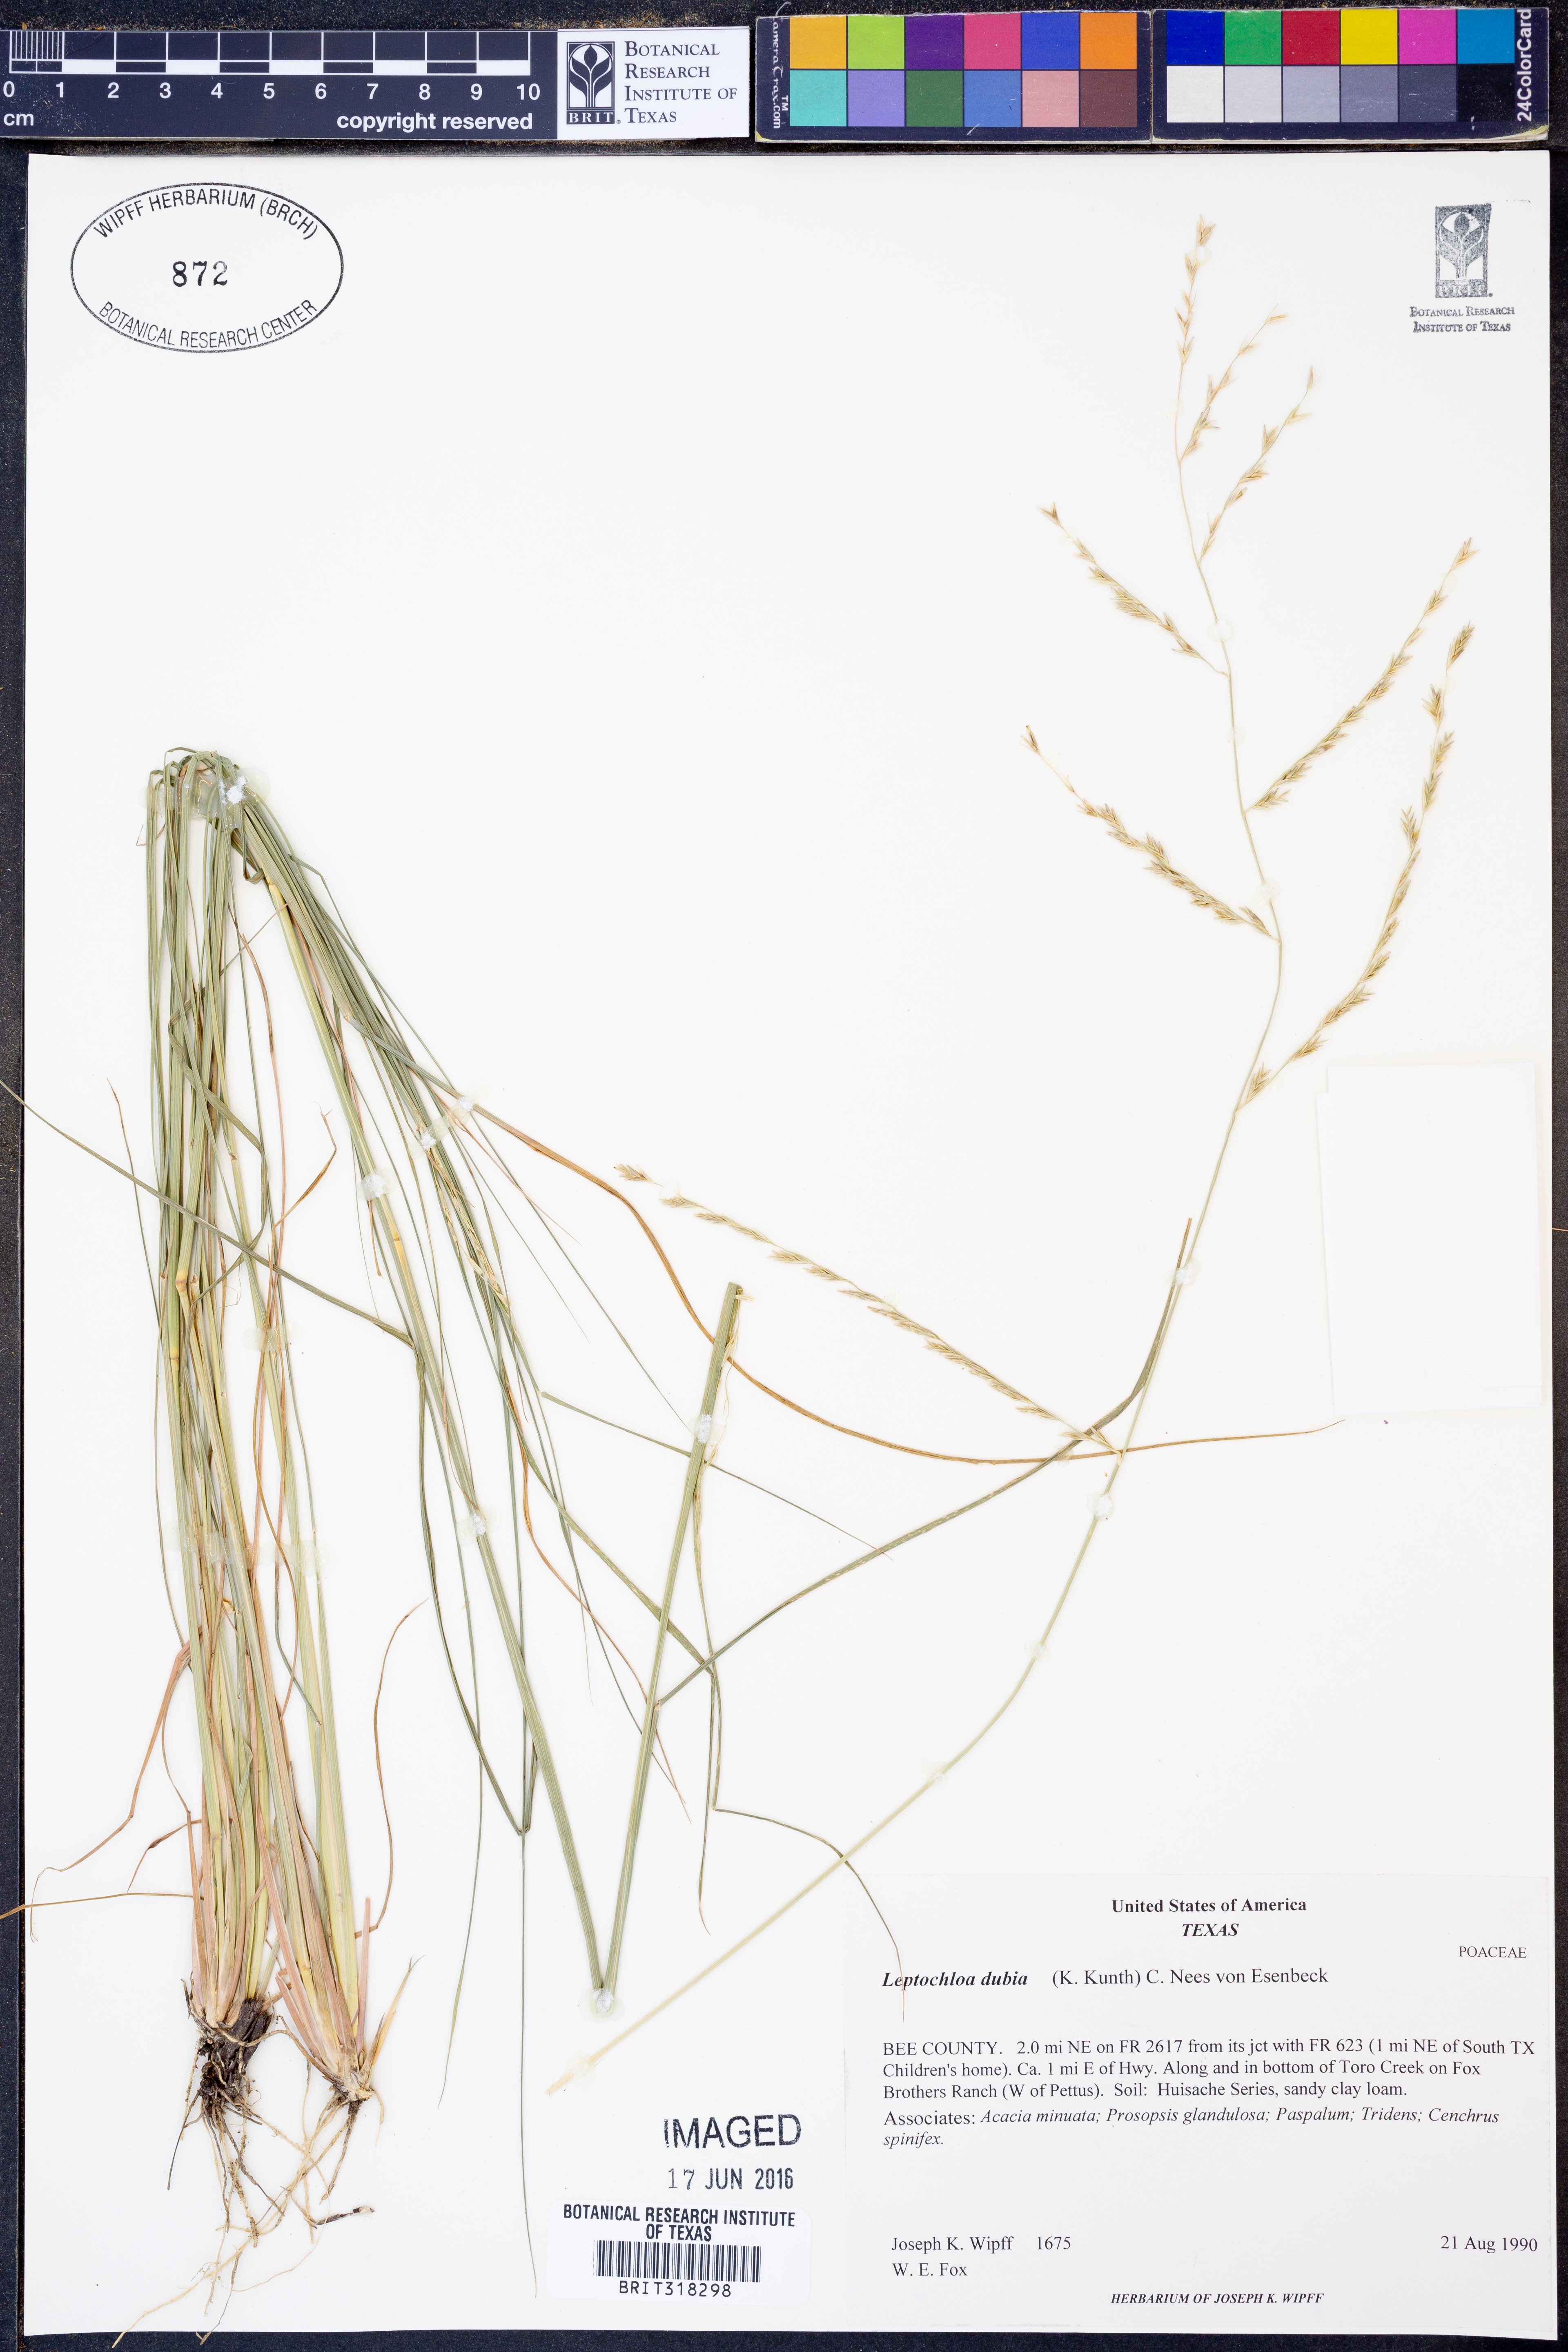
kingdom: Plantae
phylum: Tracheophyta
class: Liliopsida
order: Poales
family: Poaceae
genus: Disakisperma
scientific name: Disakisperma dubium
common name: Green sprangletop
